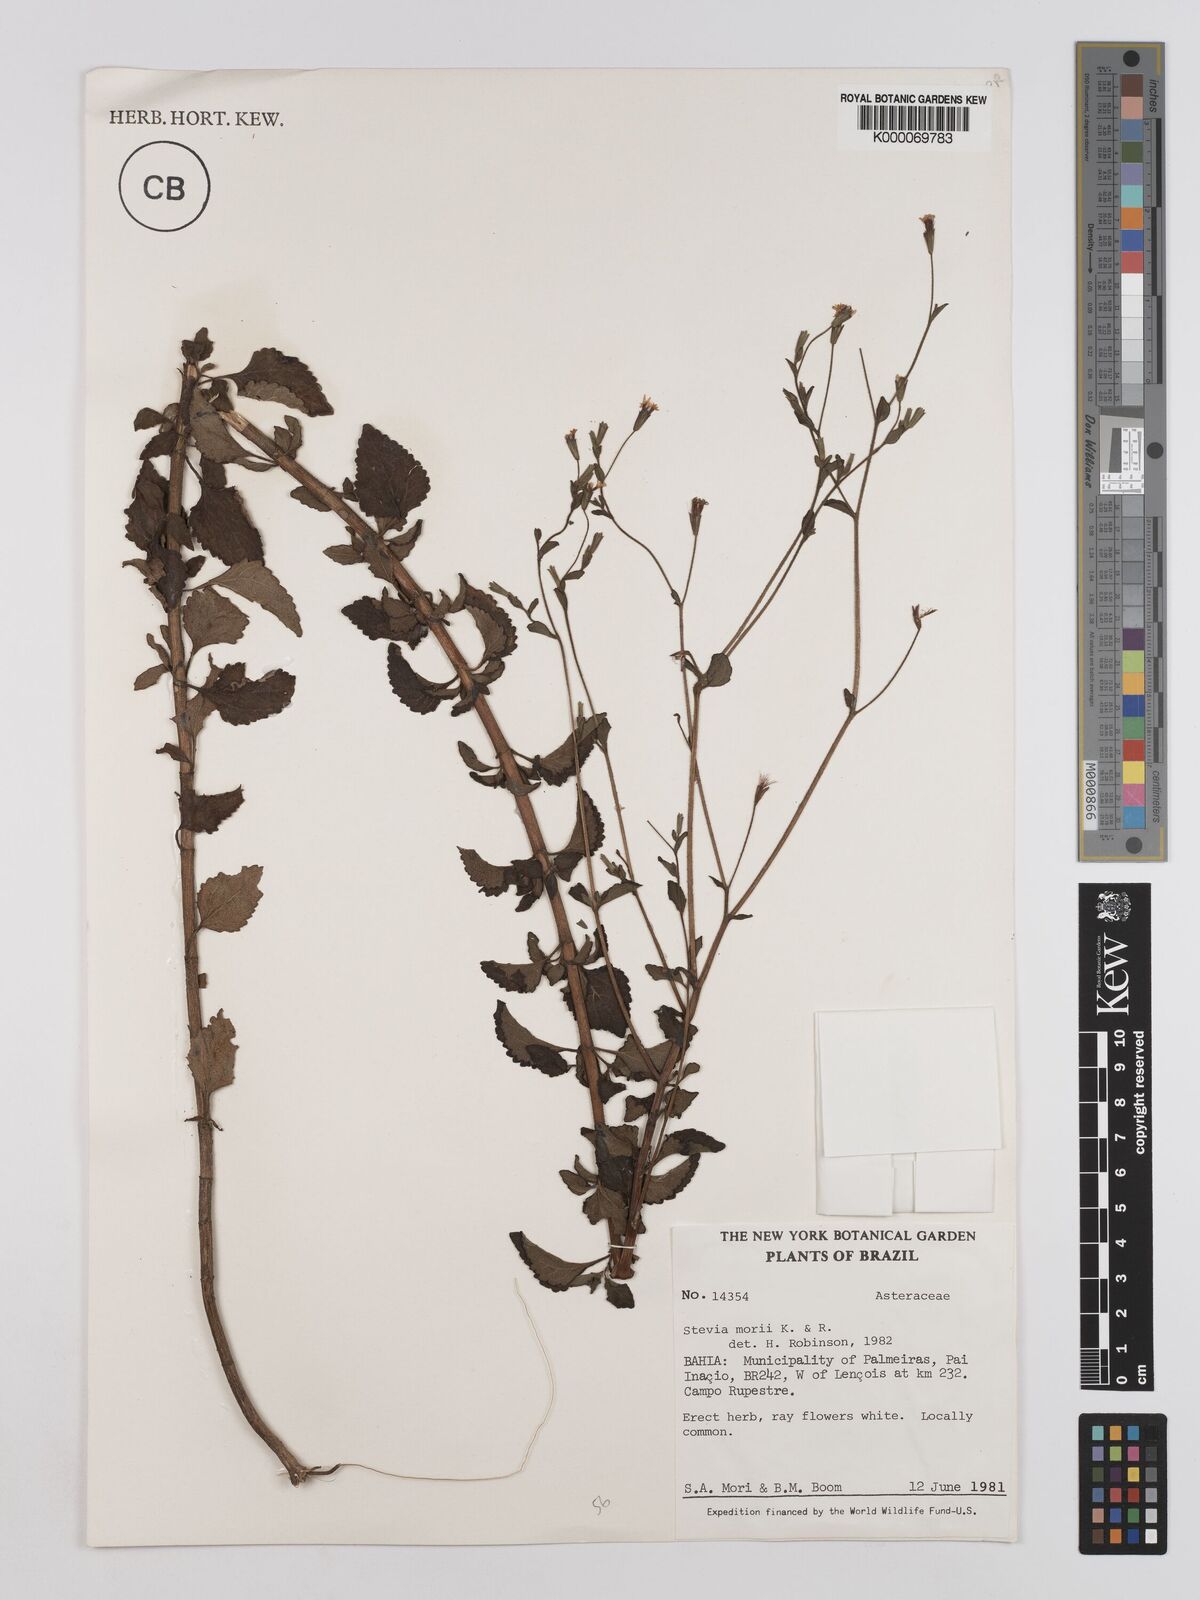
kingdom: Plantae
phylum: Tracheophyta
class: Magnoliopsida
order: Asterales
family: Asteraceae
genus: Stevia
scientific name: Stevia morii
